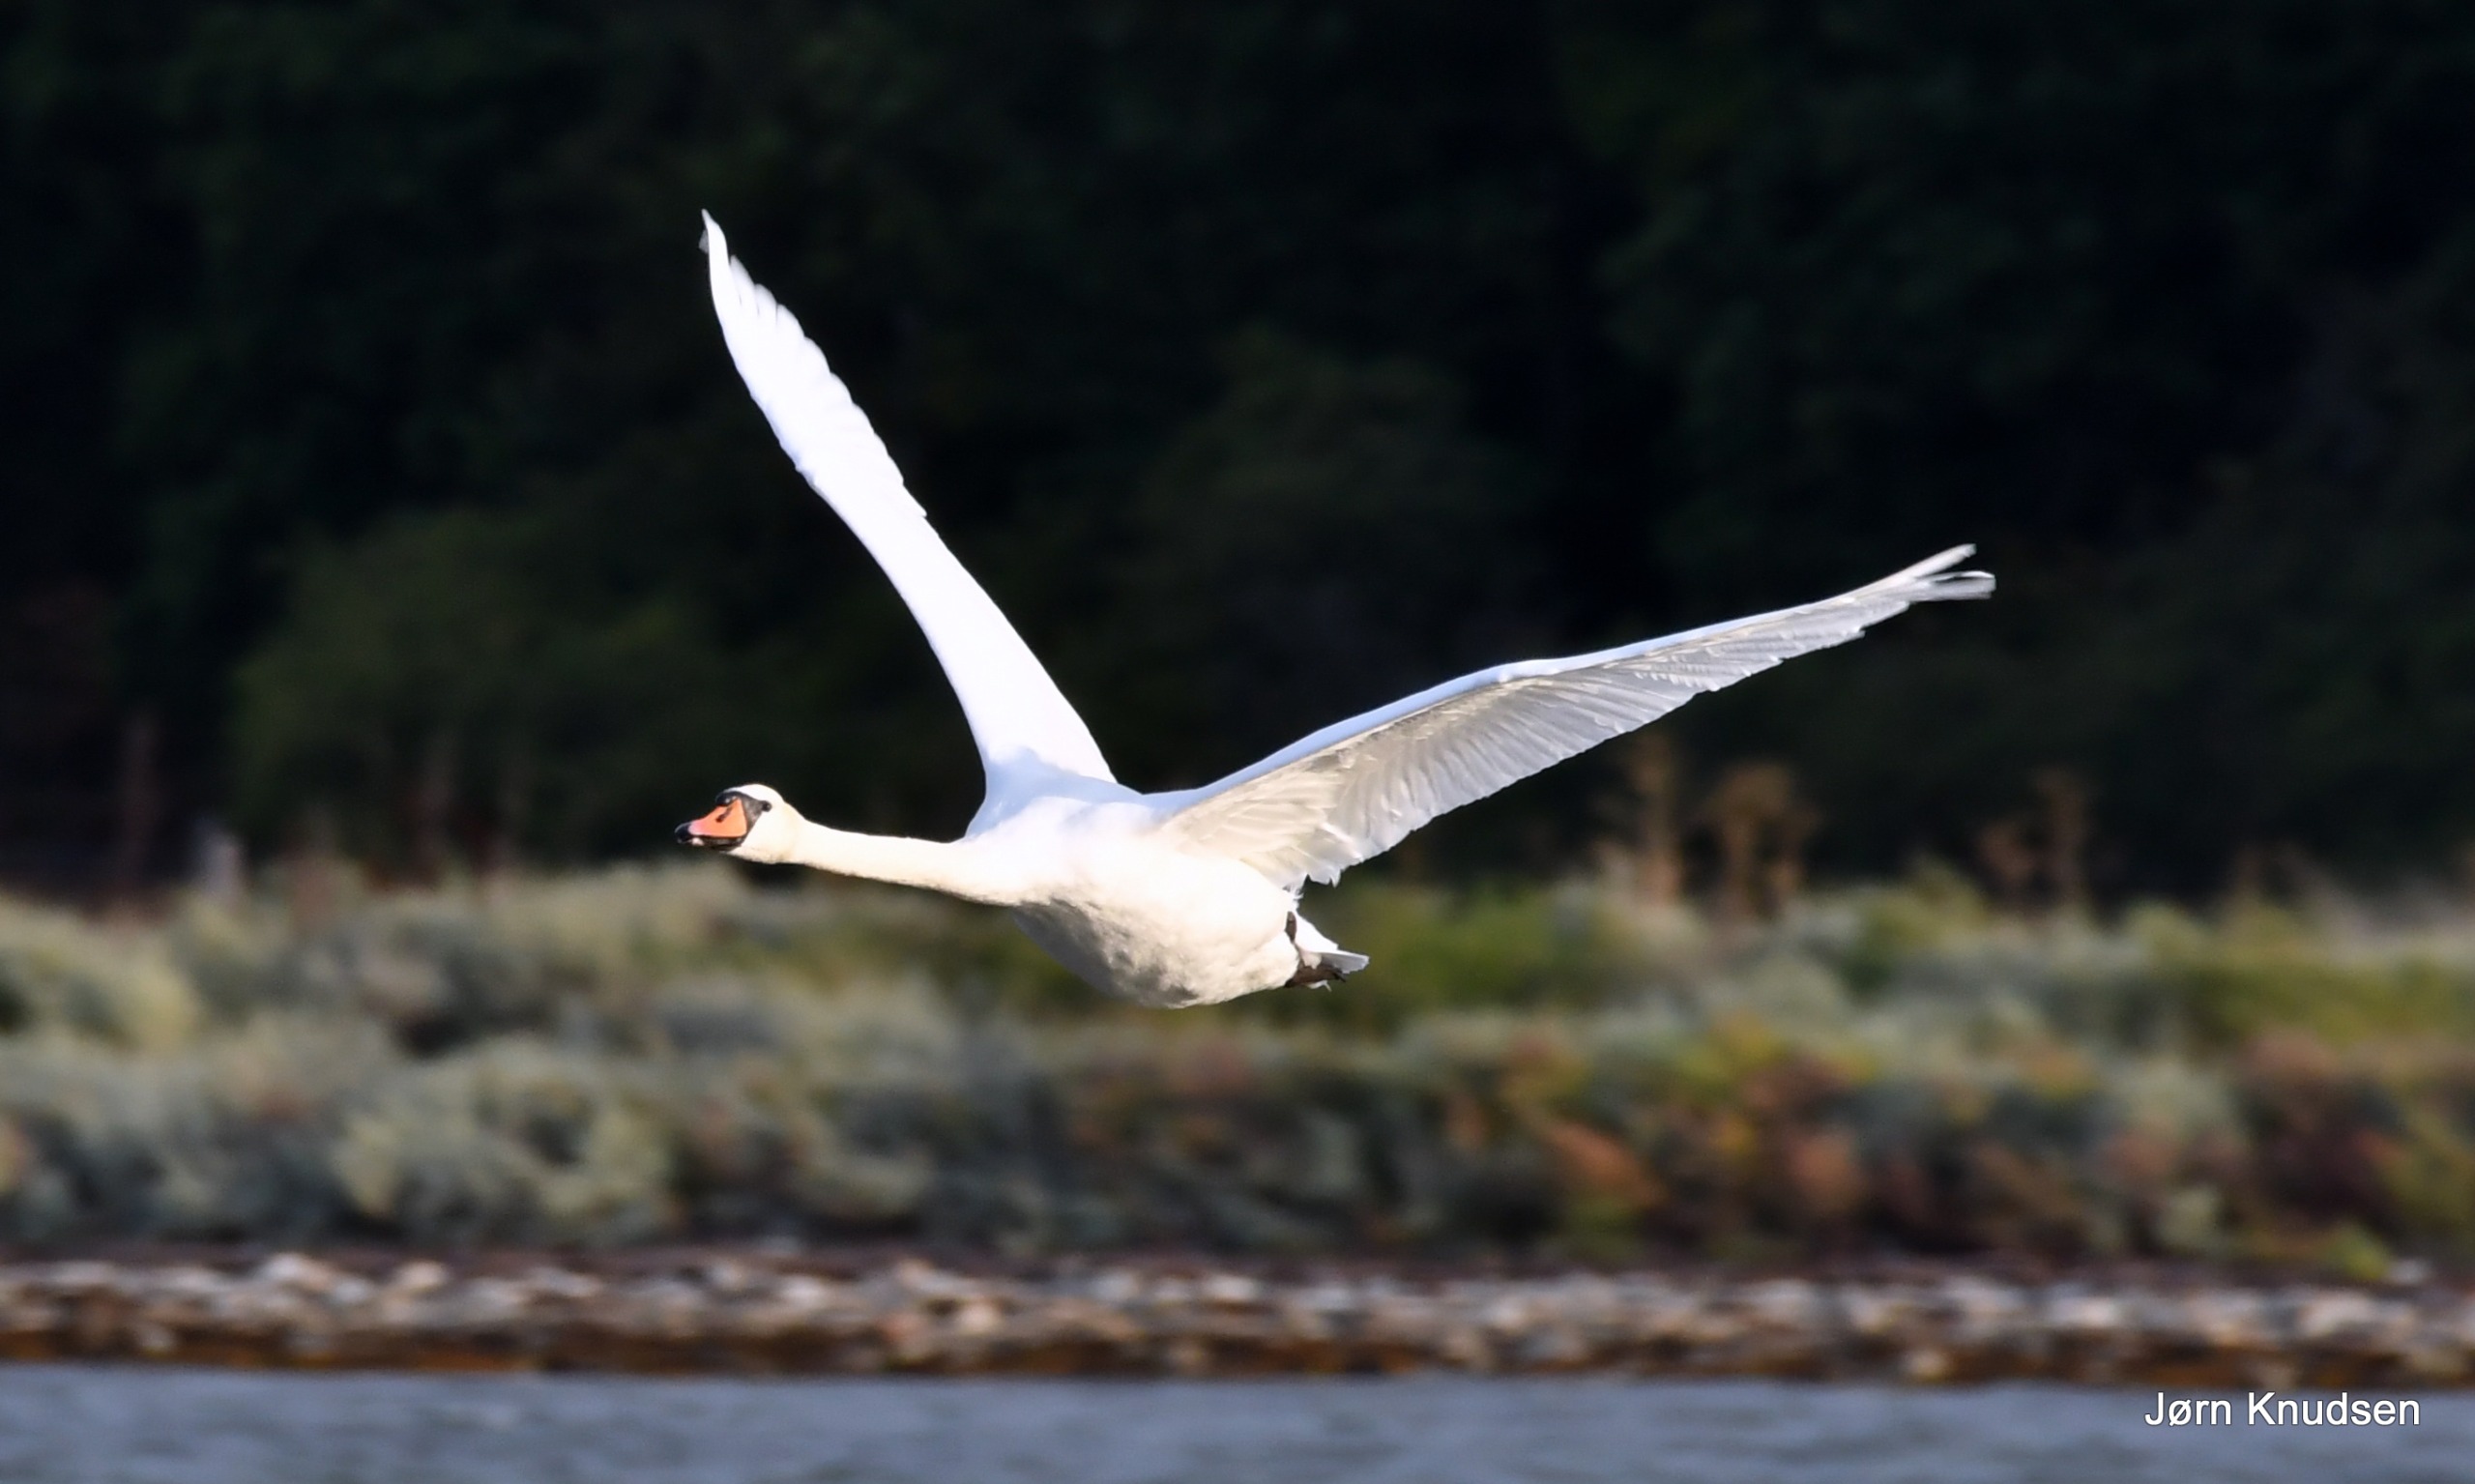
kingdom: Animalia
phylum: Chordata
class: Aves
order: Anseriformes
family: Anatidae
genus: Cygnus
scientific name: Cygnus olor
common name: Knopsvane
